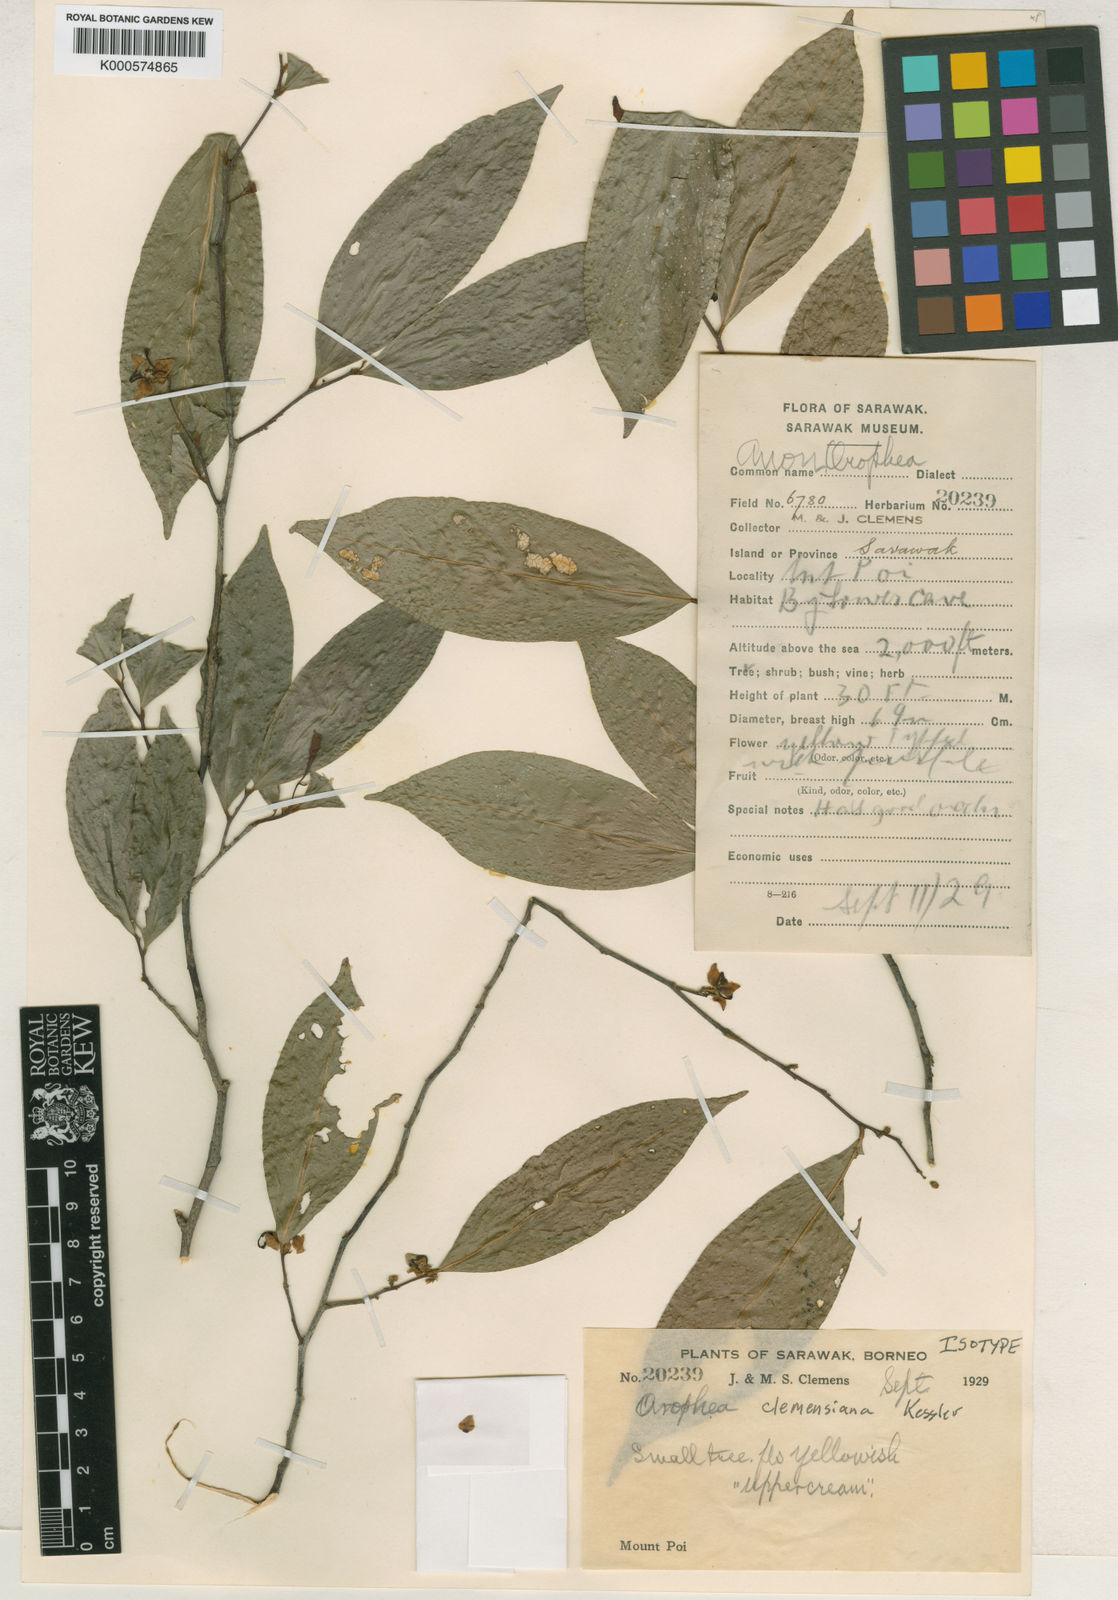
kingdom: Plantae
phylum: Tracheophyta
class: Magnoliopsida
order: Magnoliales
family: Annonaceae
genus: Orophea
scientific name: Orophea clemensiana
